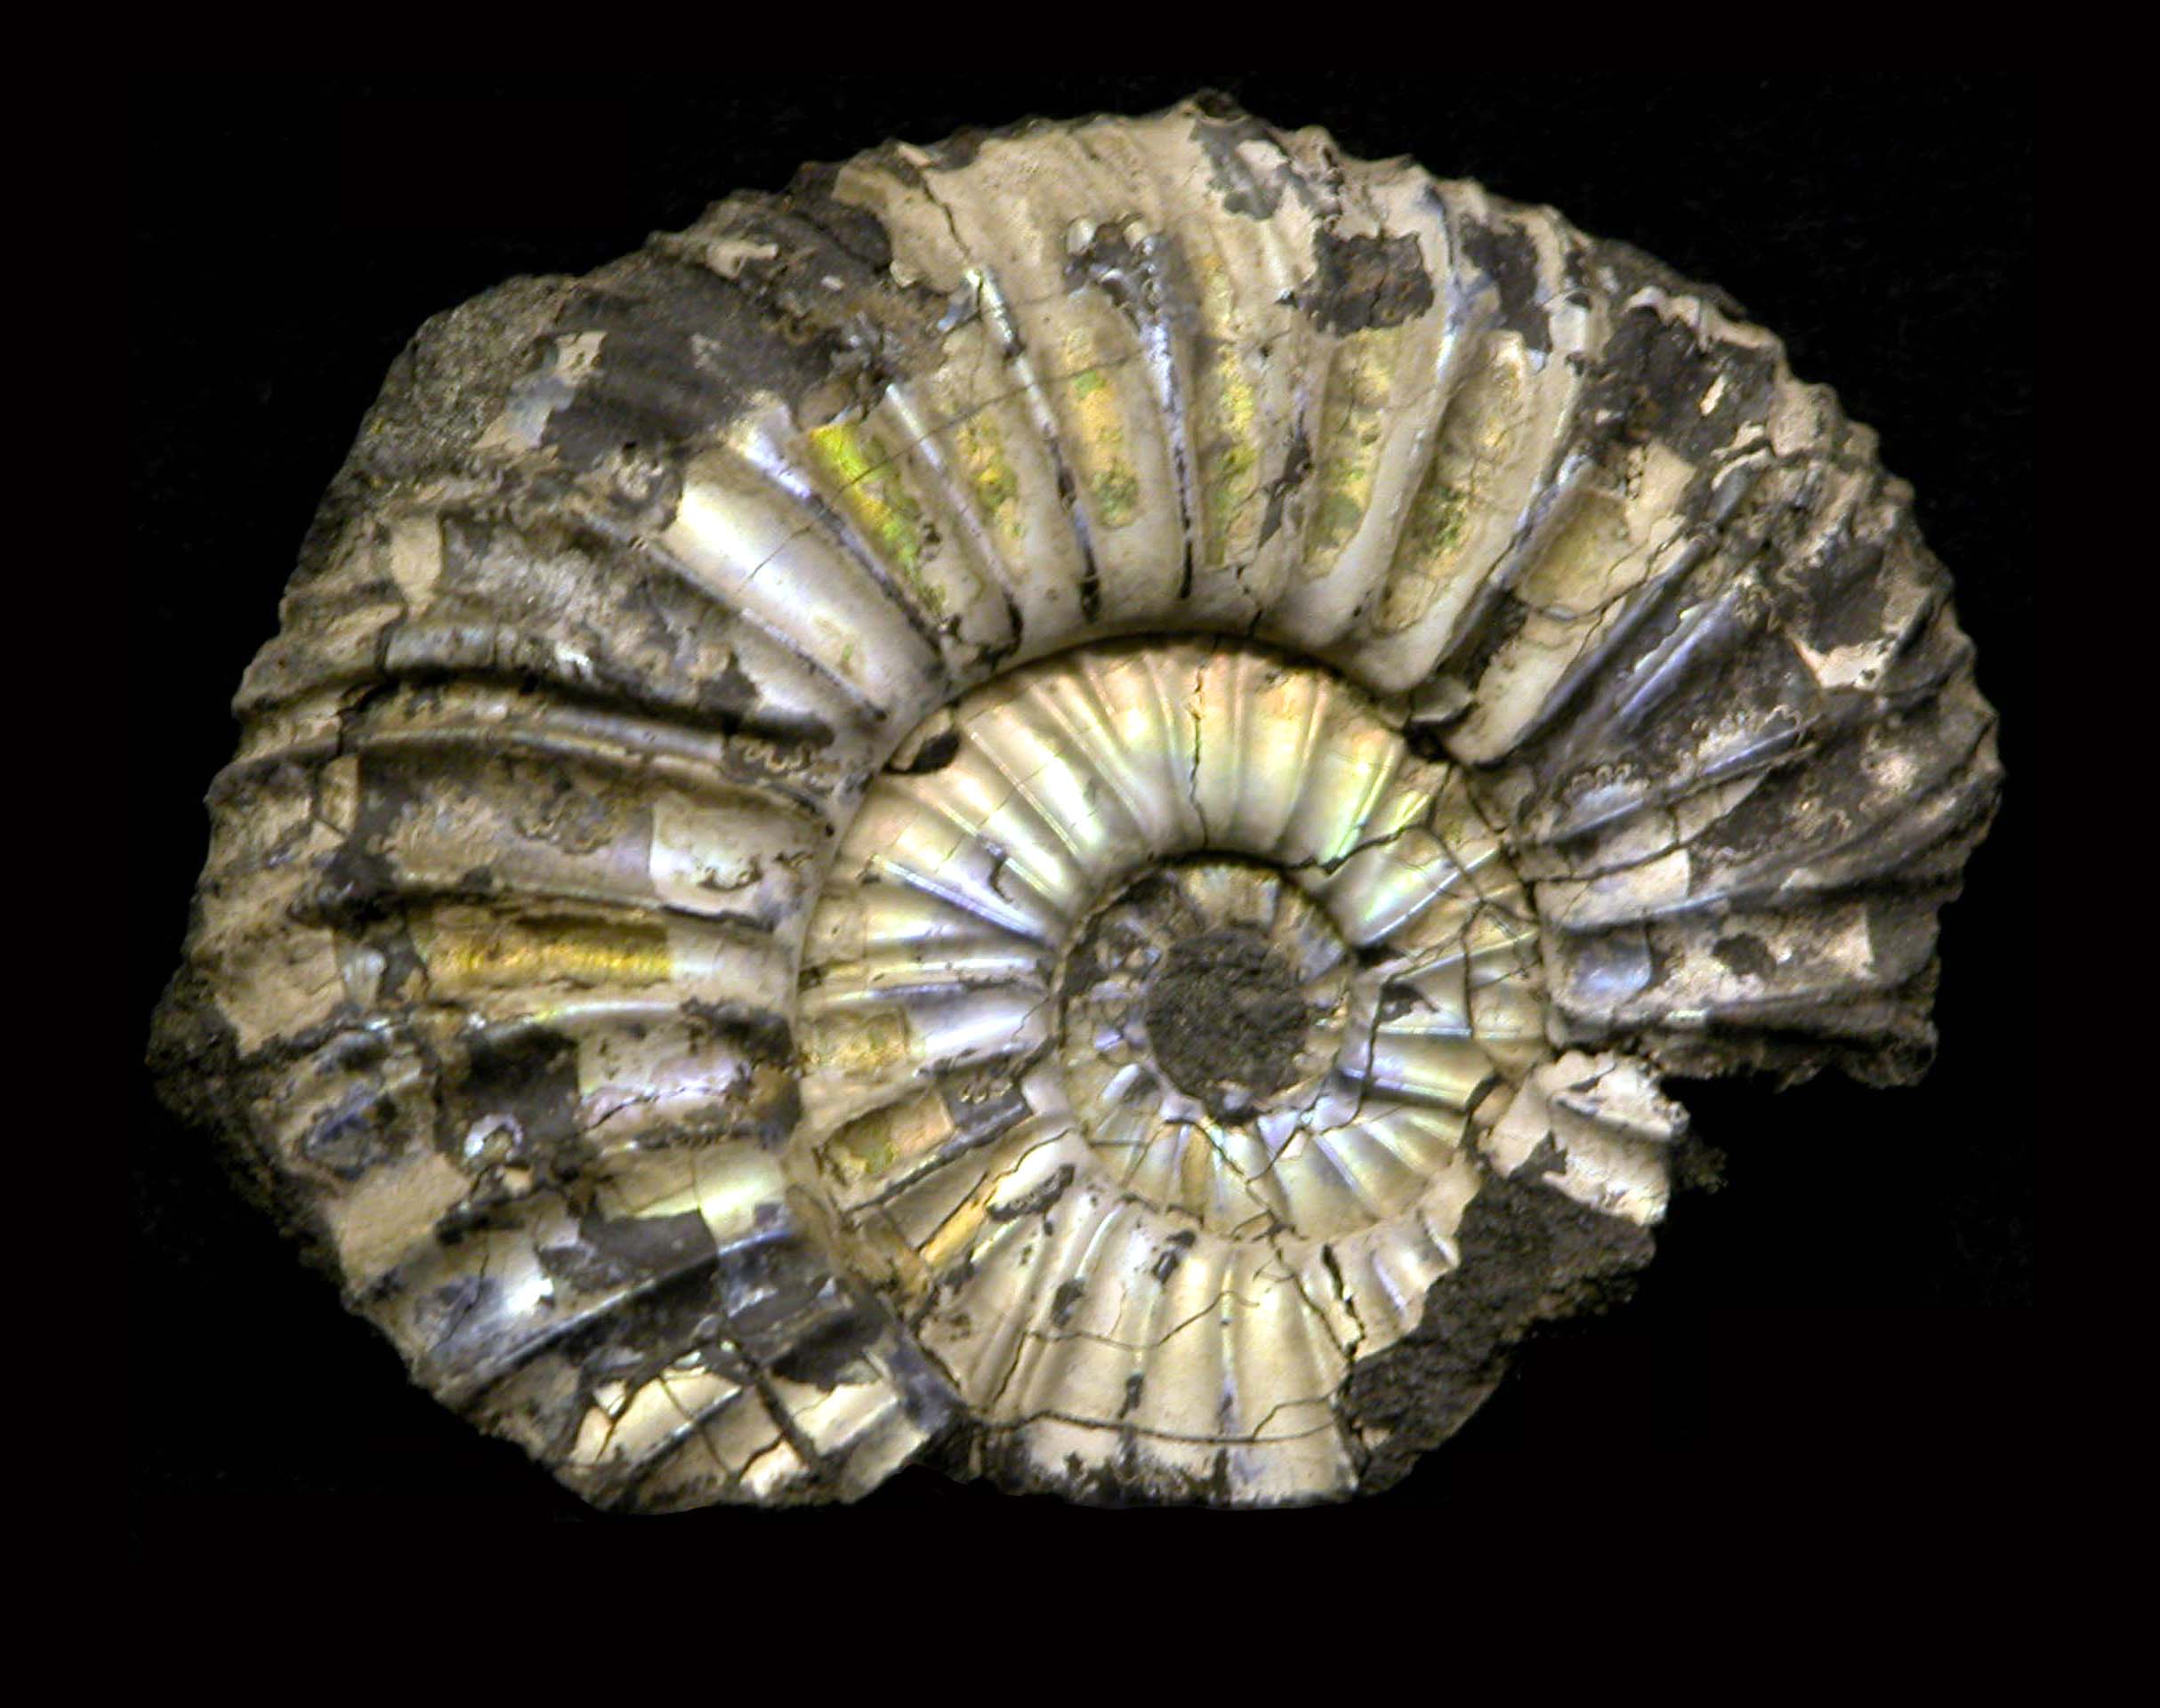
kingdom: Animalia
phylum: Mollusca
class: Cephalopoda
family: Perisphinctidae
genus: Virgatites
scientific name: Virgatites
